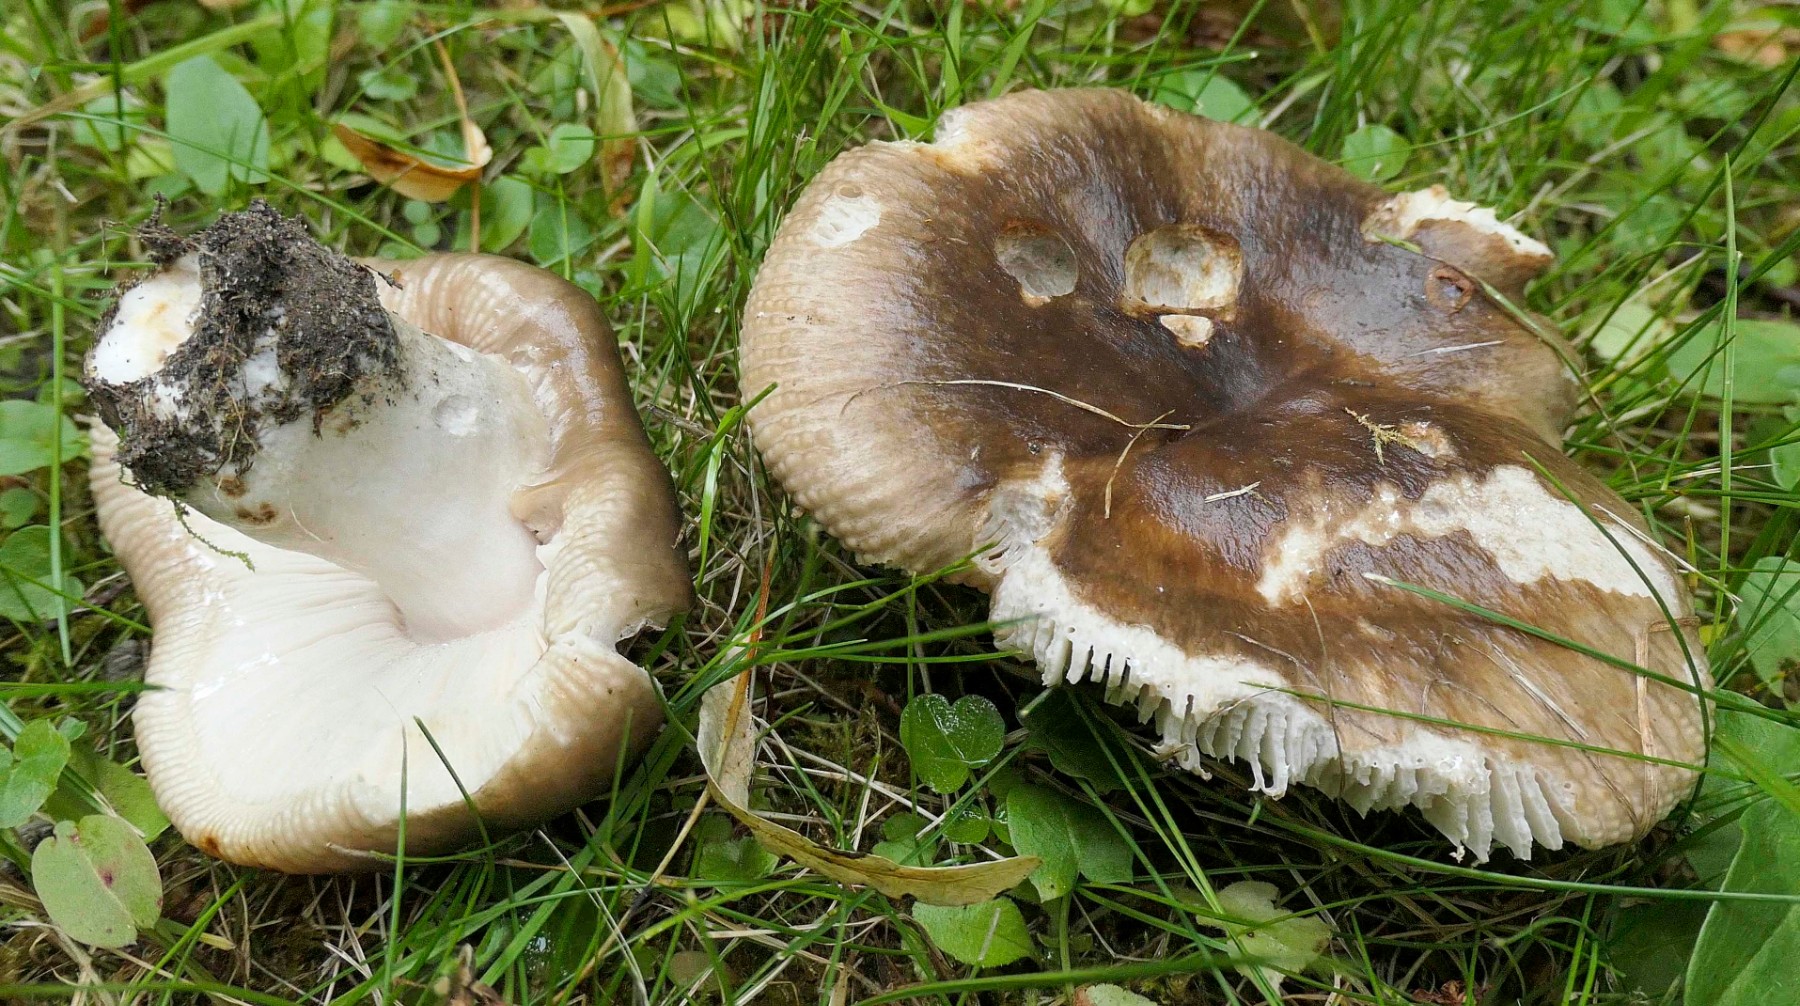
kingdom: Fungi
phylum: Basidiomycota
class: Agaricomycetes
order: Russulales
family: Russulaceae
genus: Russula
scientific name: Russula sororia
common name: brun kam-skørhat
